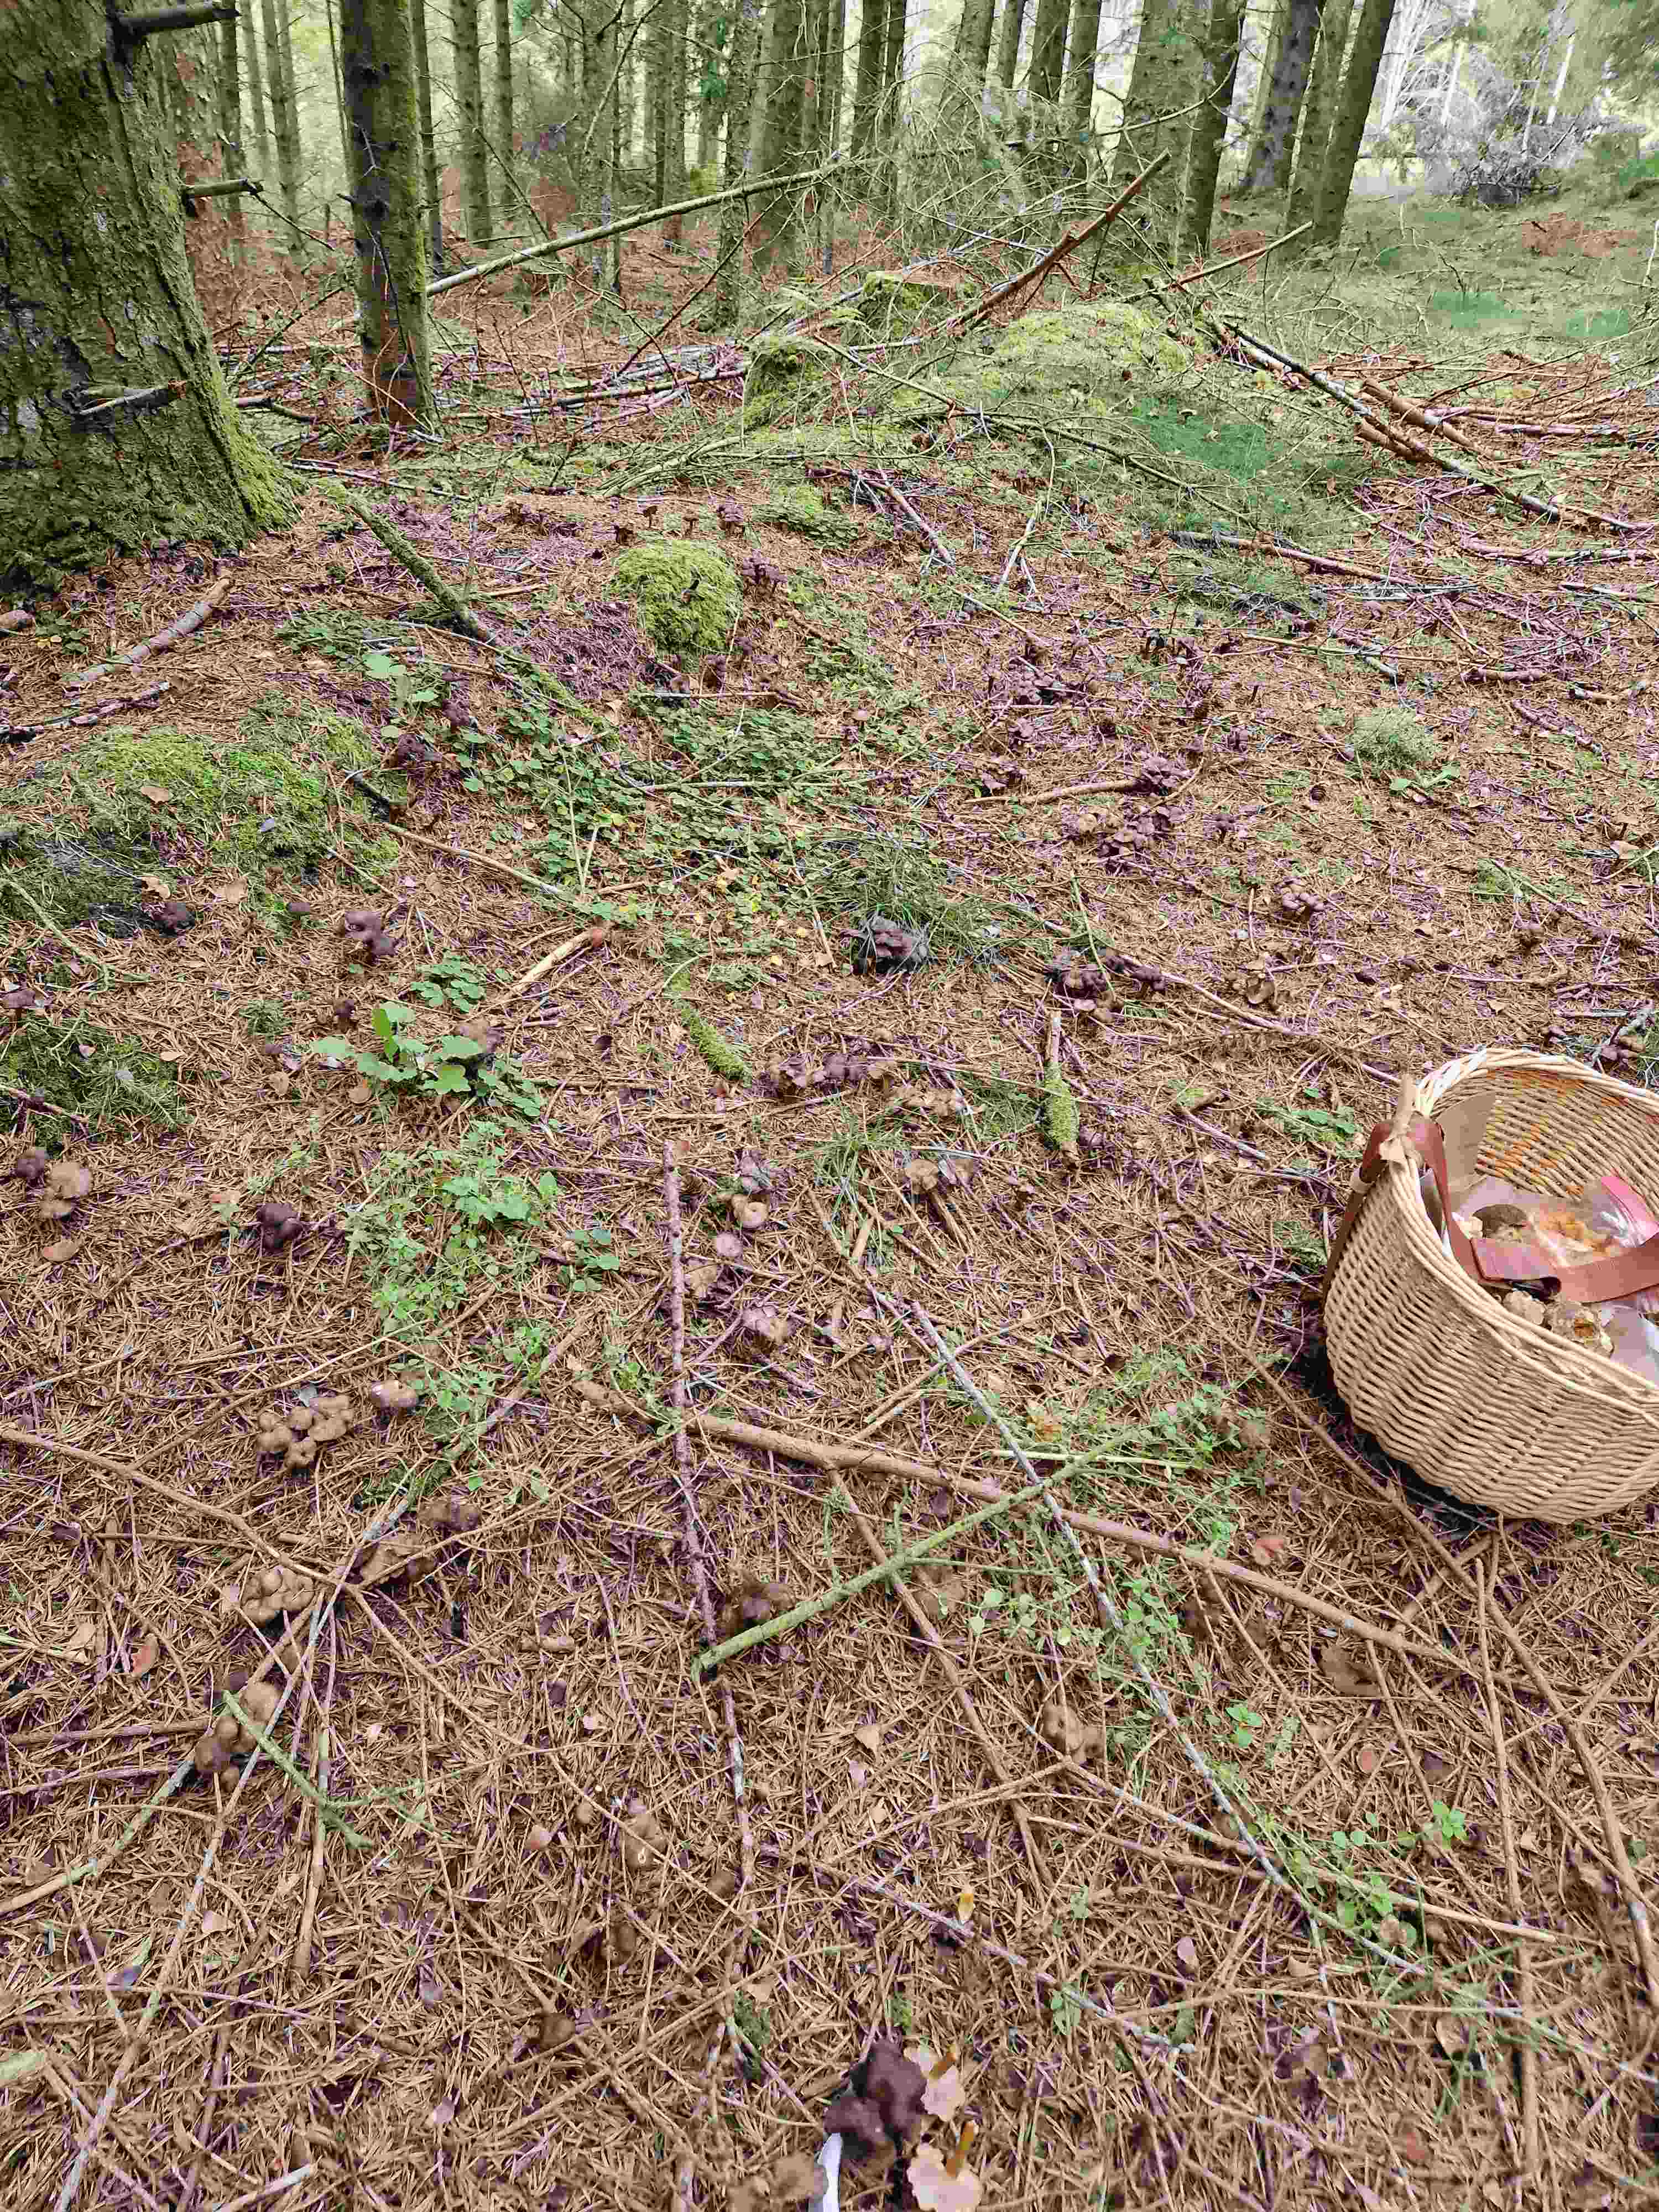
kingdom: Fungi
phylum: Basidiomycota
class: Agaricomycetes
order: Cantharellales
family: Hydnaceae
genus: Craterellus
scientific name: Craterellus tubaeformis
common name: tragt-kantarel
